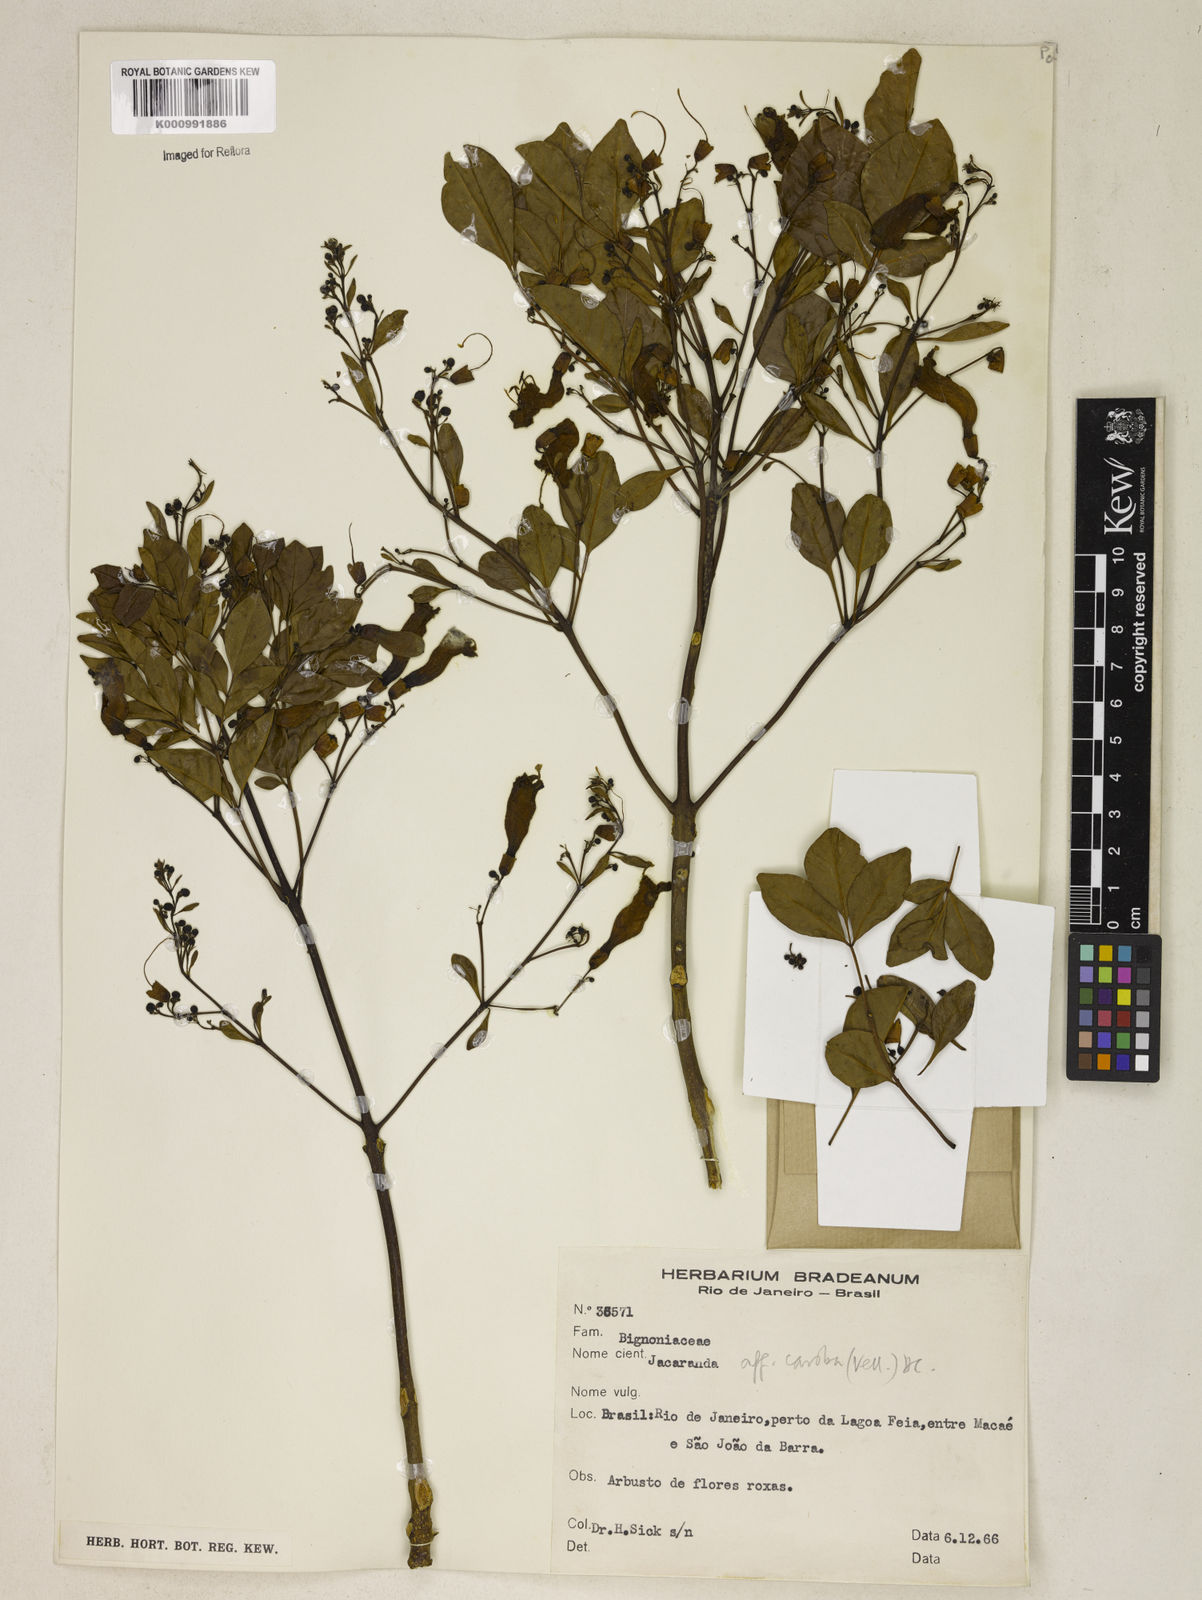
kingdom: Plantae
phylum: Tracheophyta
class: Magnoliopsida
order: Lamiales
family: Bignoniaceae
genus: Jacaranda
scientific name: Jacaranda
